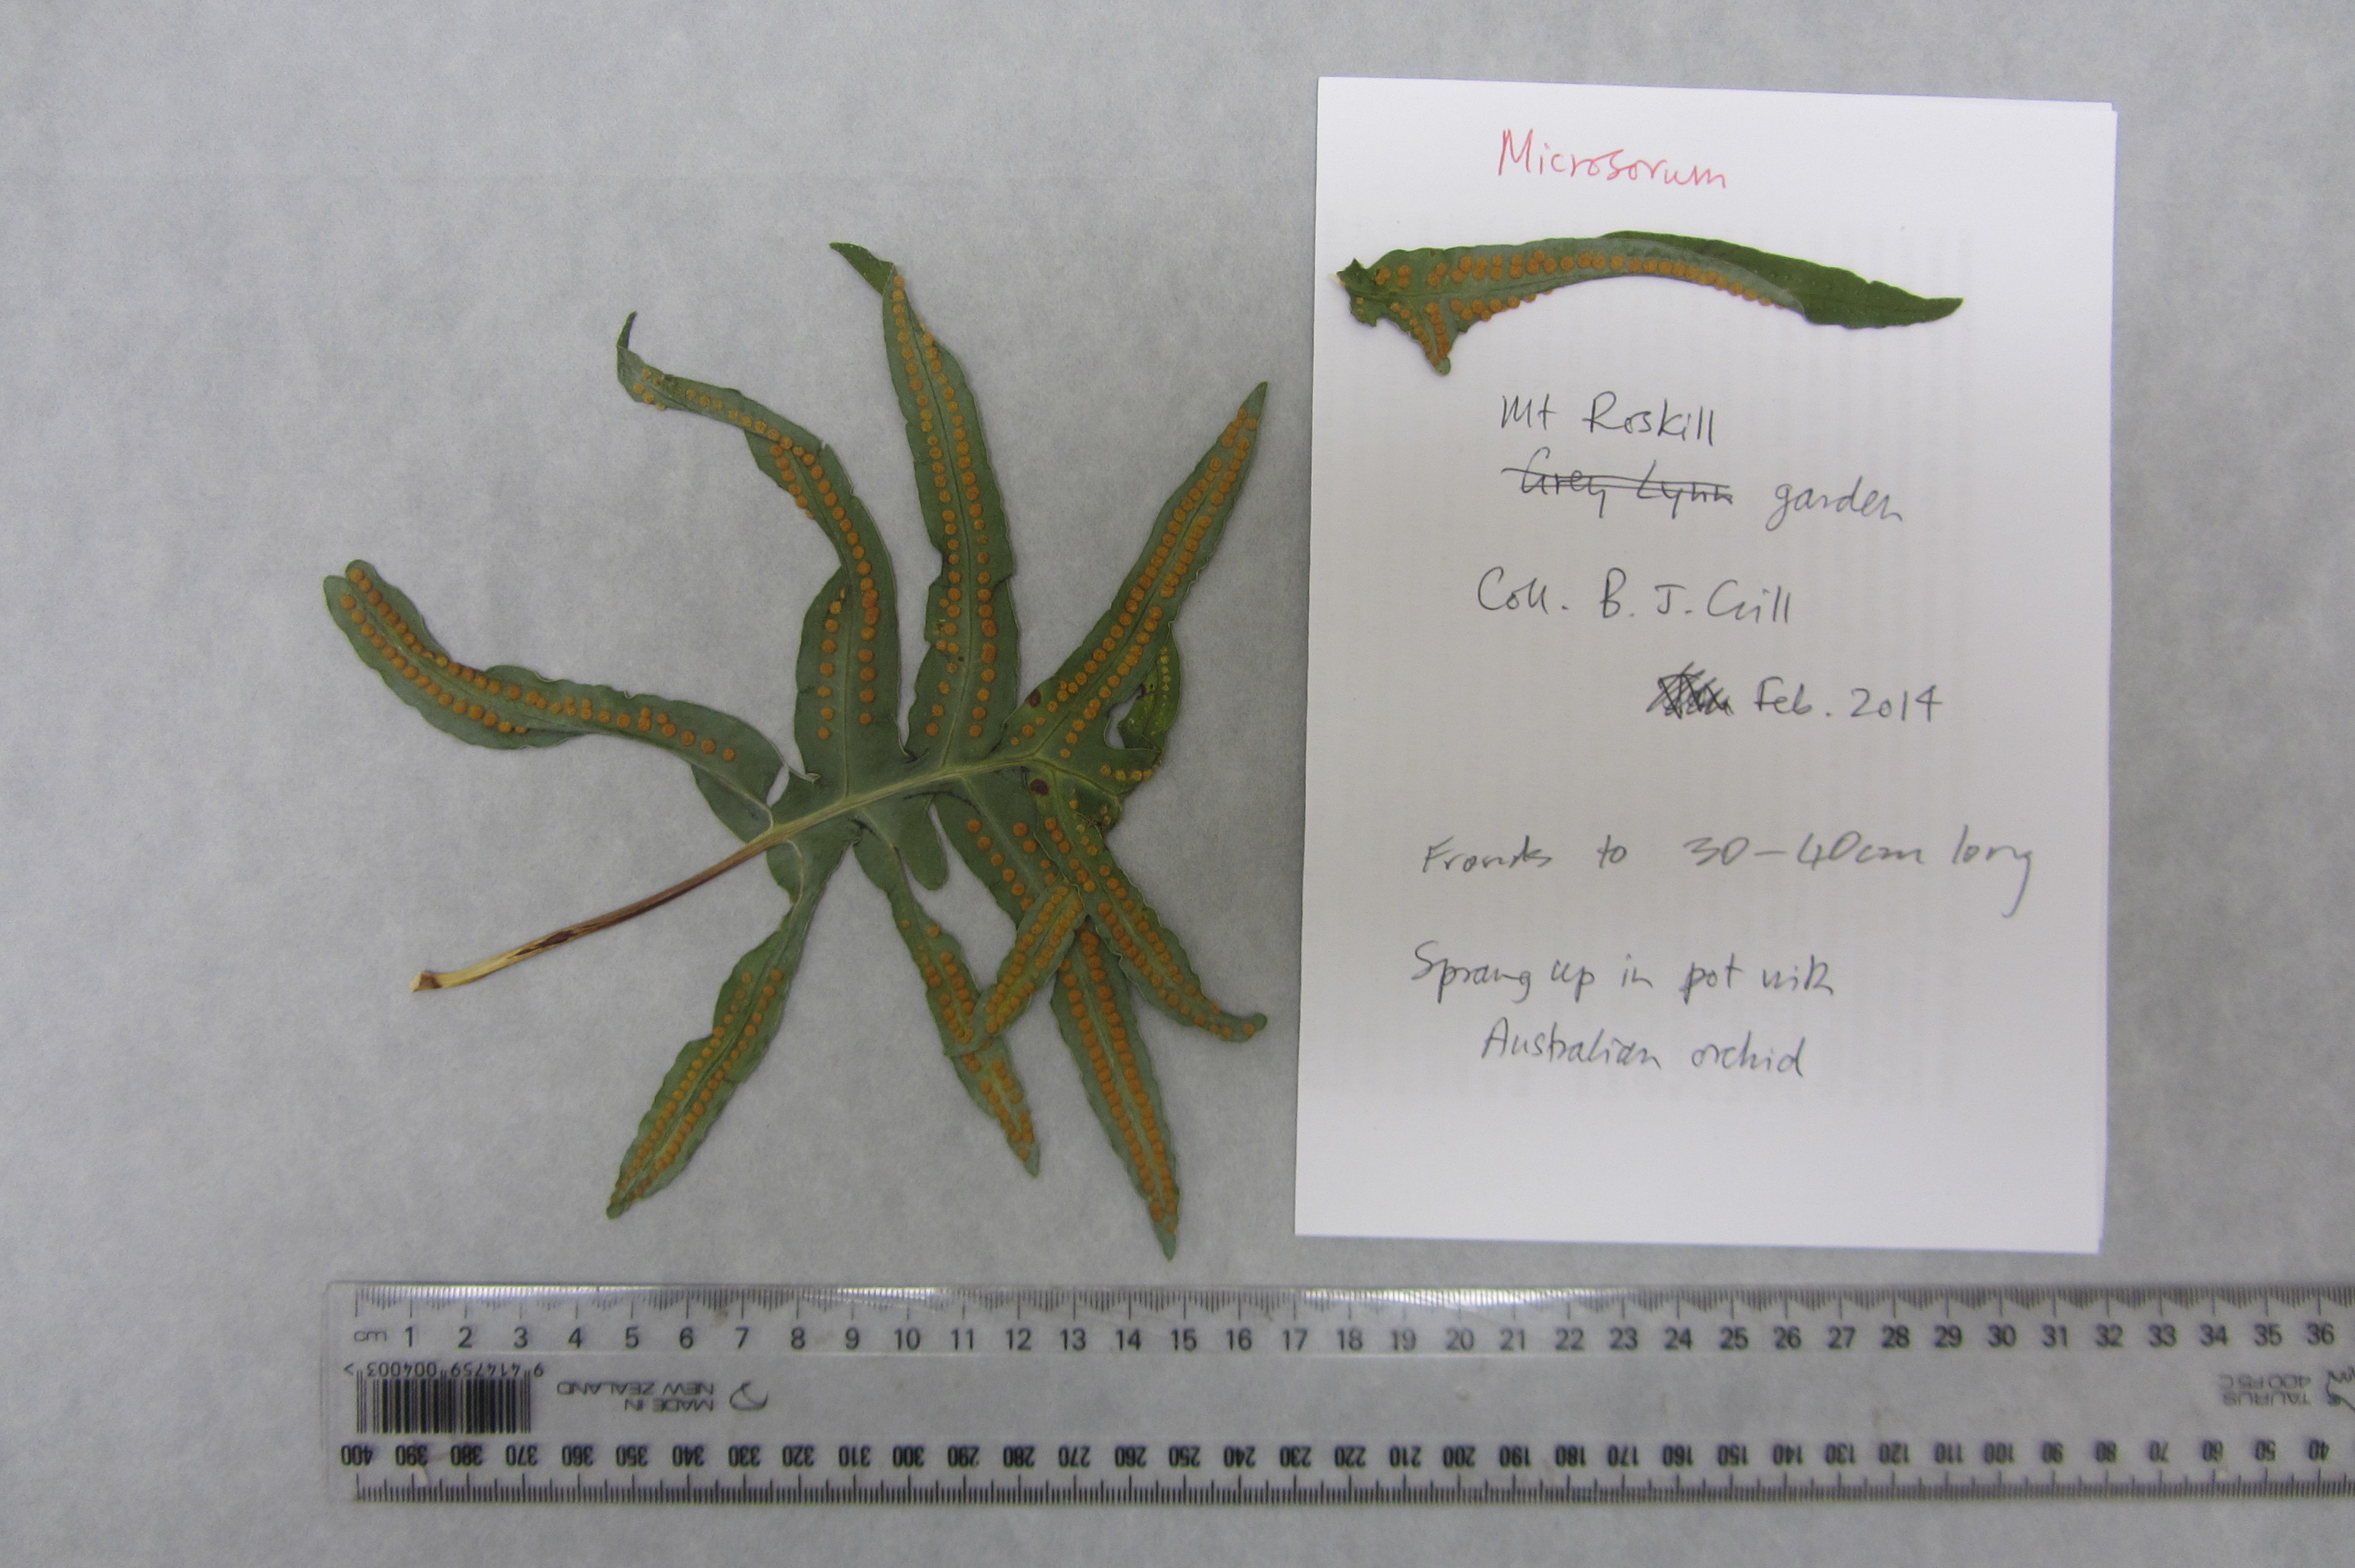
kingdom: Plantae
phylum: Tracheophyta
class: Polypodiopsida
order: Polypodiales
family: Polypodiaceae
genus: Phlebodium
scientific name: Phlebodium aureum
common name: Gold-foot fern
